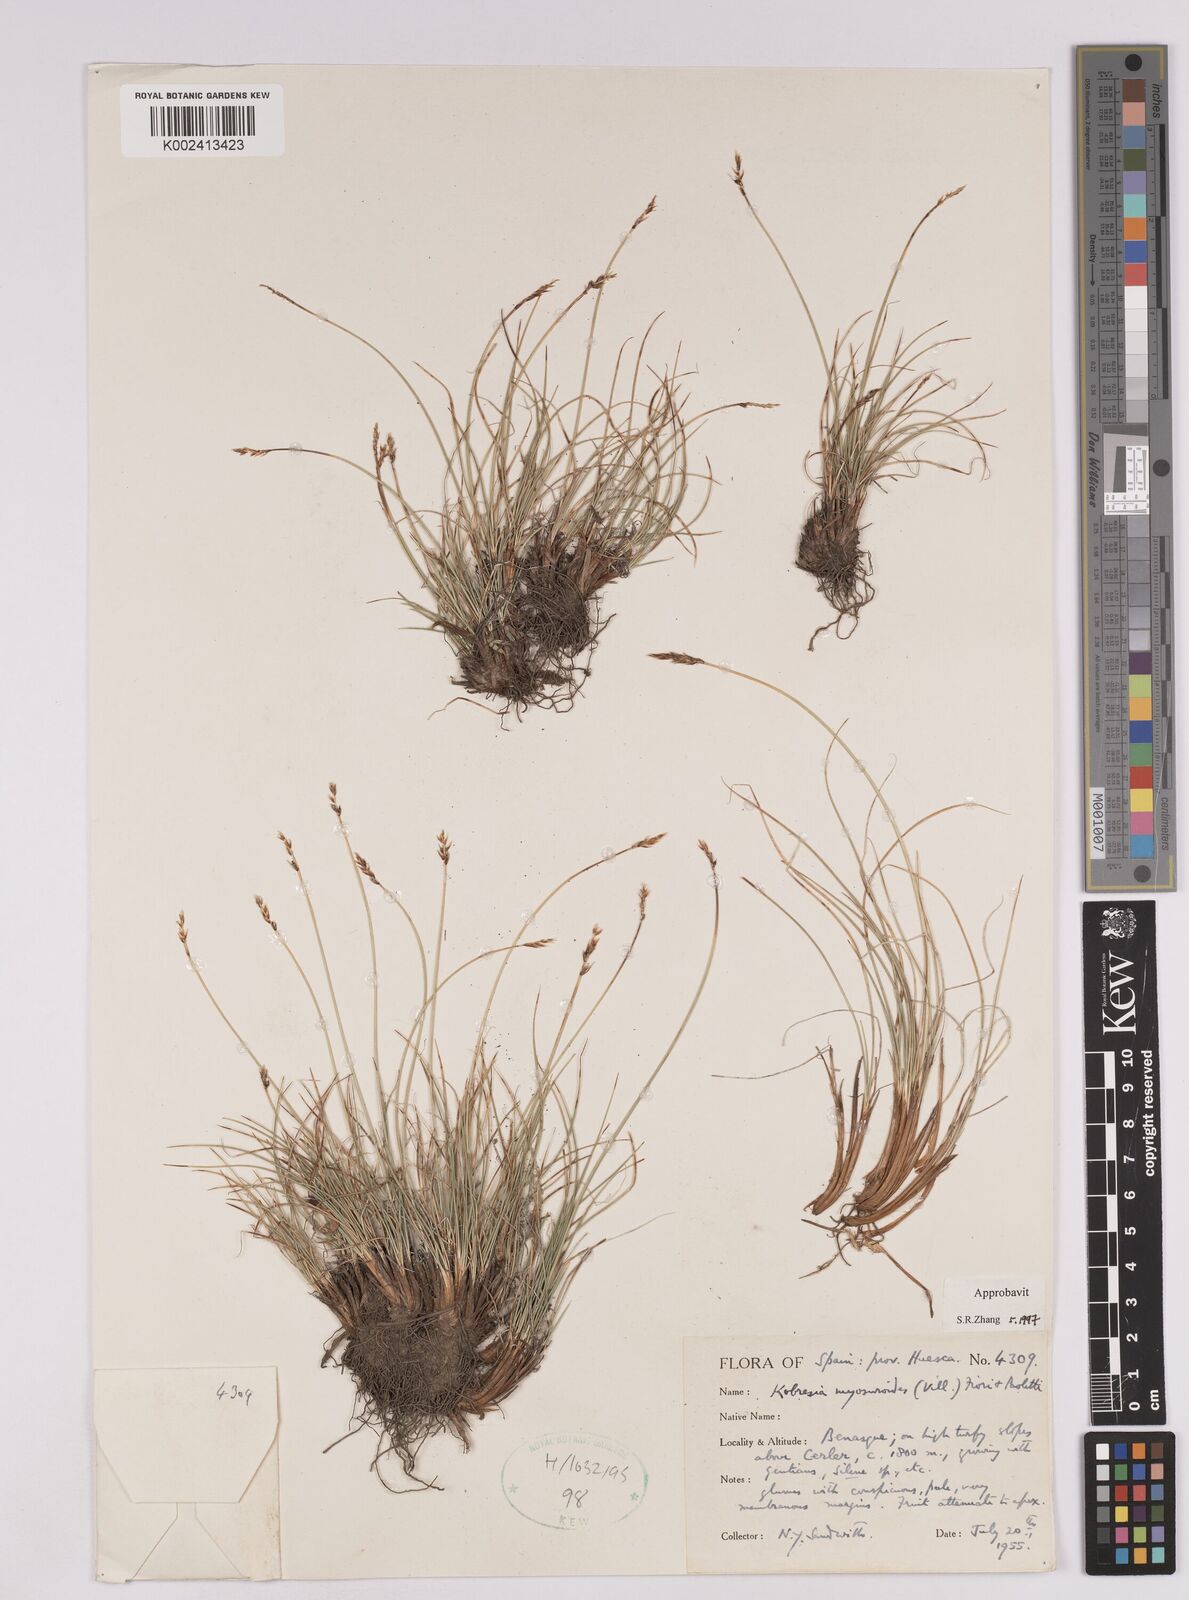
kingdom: Plantae
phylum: Tracheophyta
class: Liliopsida
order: Poales
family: Cyperaceae
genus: Carex
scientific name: Carex myosuroides
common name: Bellard's bog sedge
